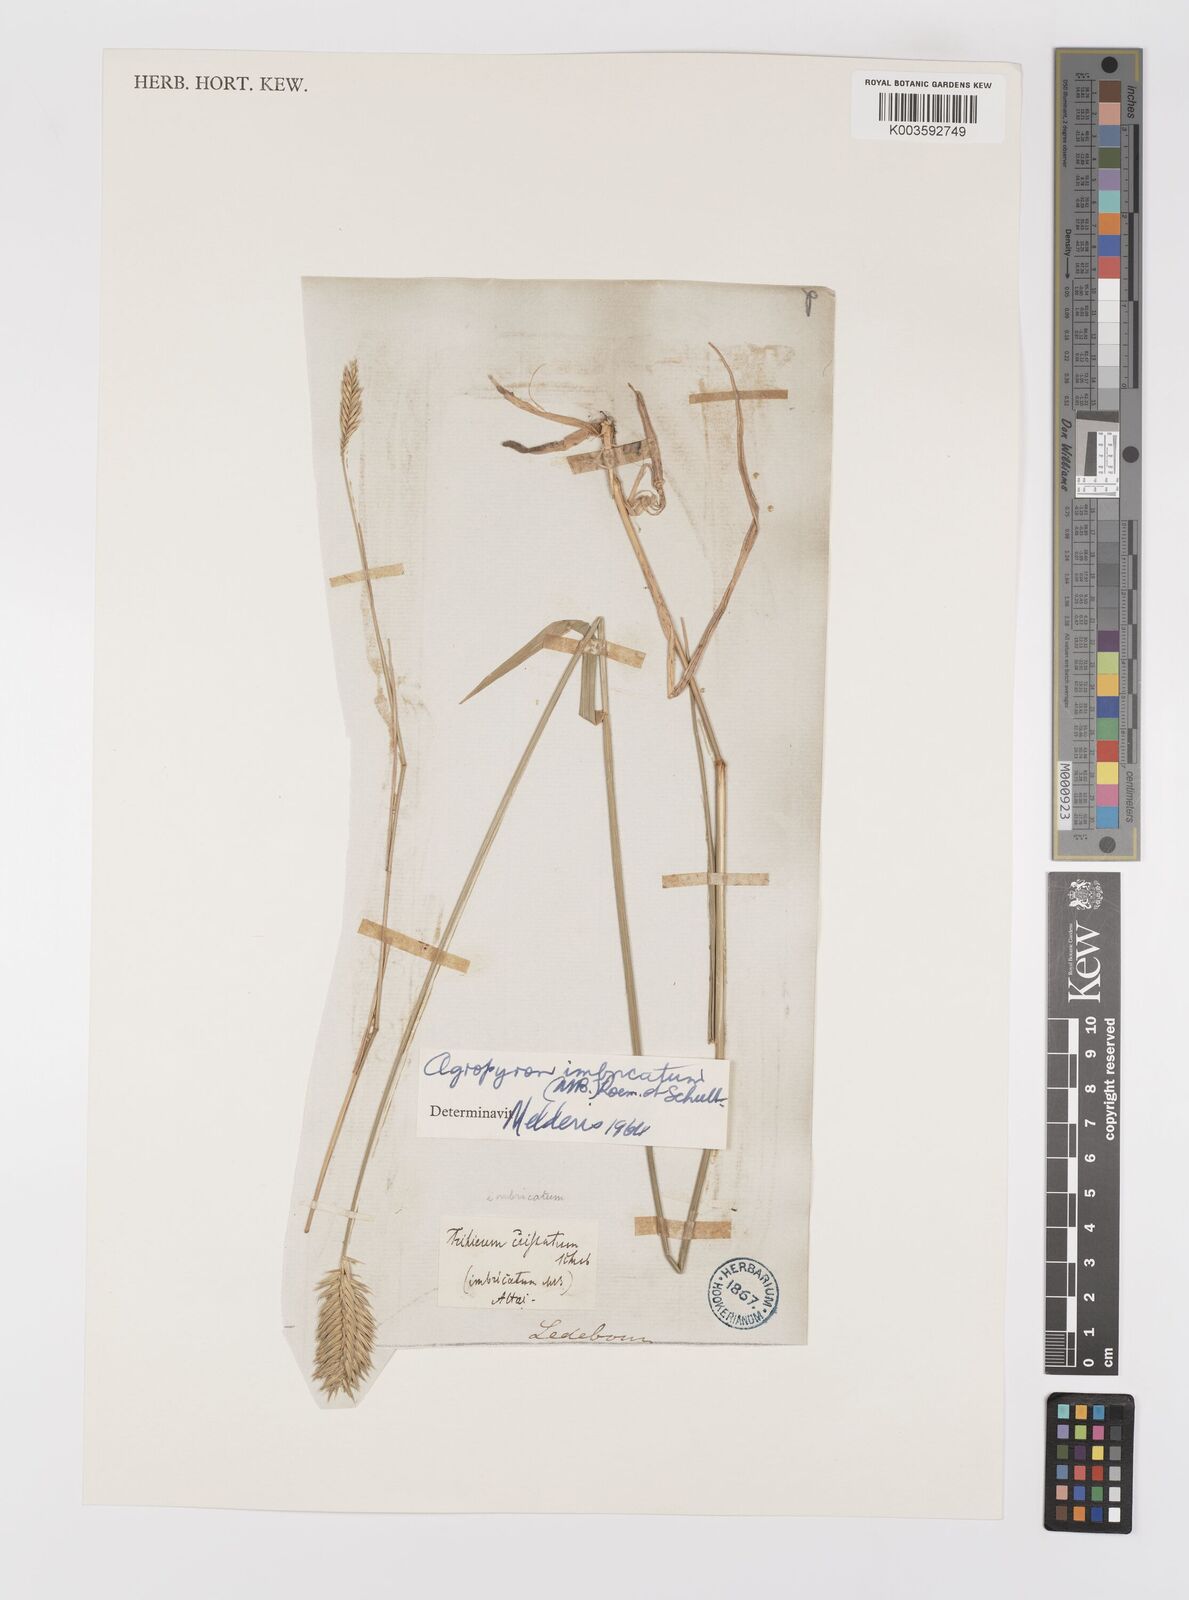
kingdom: Plantae
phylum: Tracheophyta
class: Liliopsida
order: Poales
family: Poaceae
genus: Agropyron
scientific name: Agropyron cristatum
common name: Crested wheatgrass
